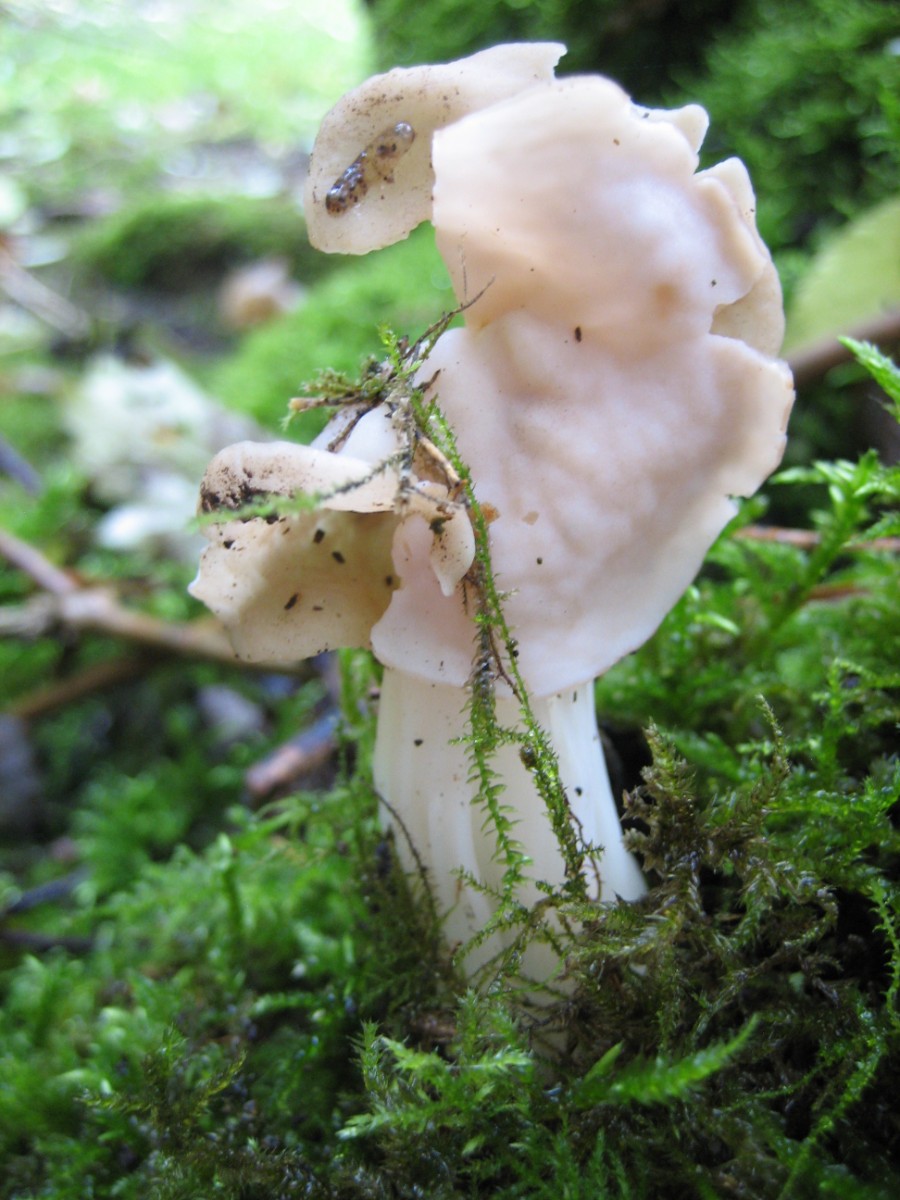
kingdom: Fungi
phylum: Ascomycota
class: Pezizomycetes
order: Pezizales
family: Helvellaceae
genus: Helvella
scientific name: Helvella crispa
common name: kruset foldhat
